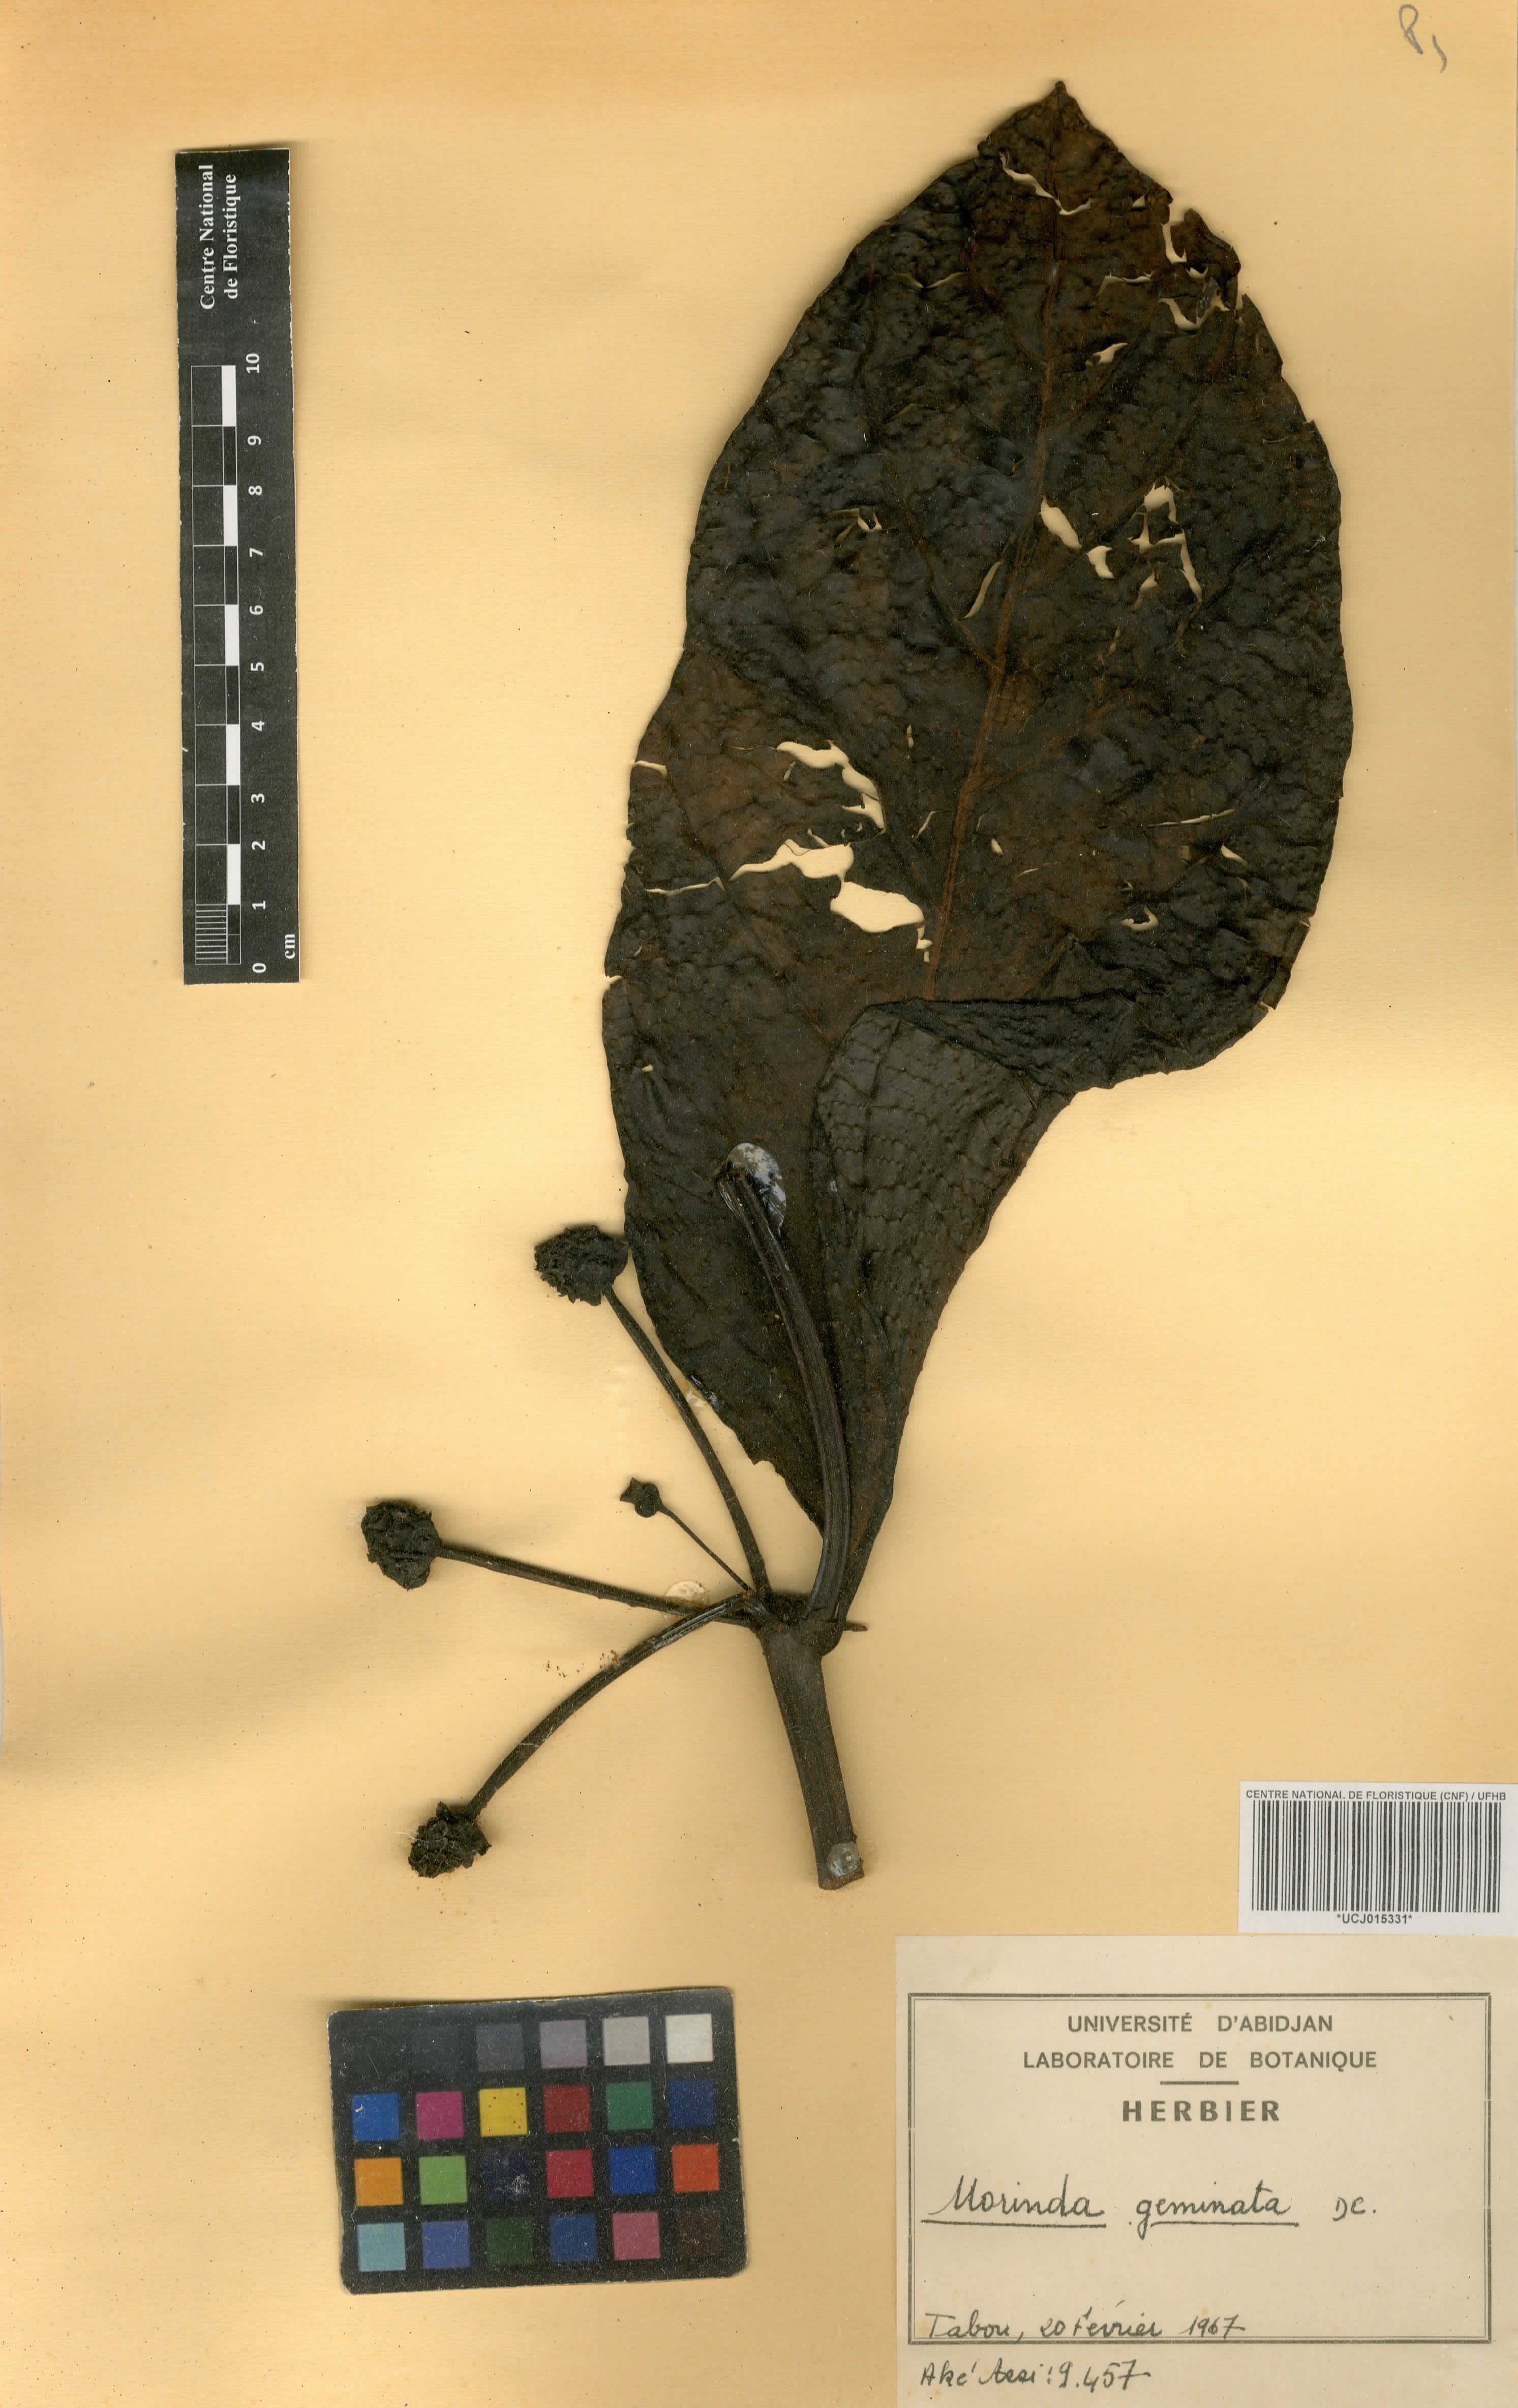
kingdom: Plantae
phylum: Tracheophyta
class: Magnoliopsida
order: Gentianales
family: Rubiaceae
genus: Morinda
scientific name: Morinda chrysorhiza
